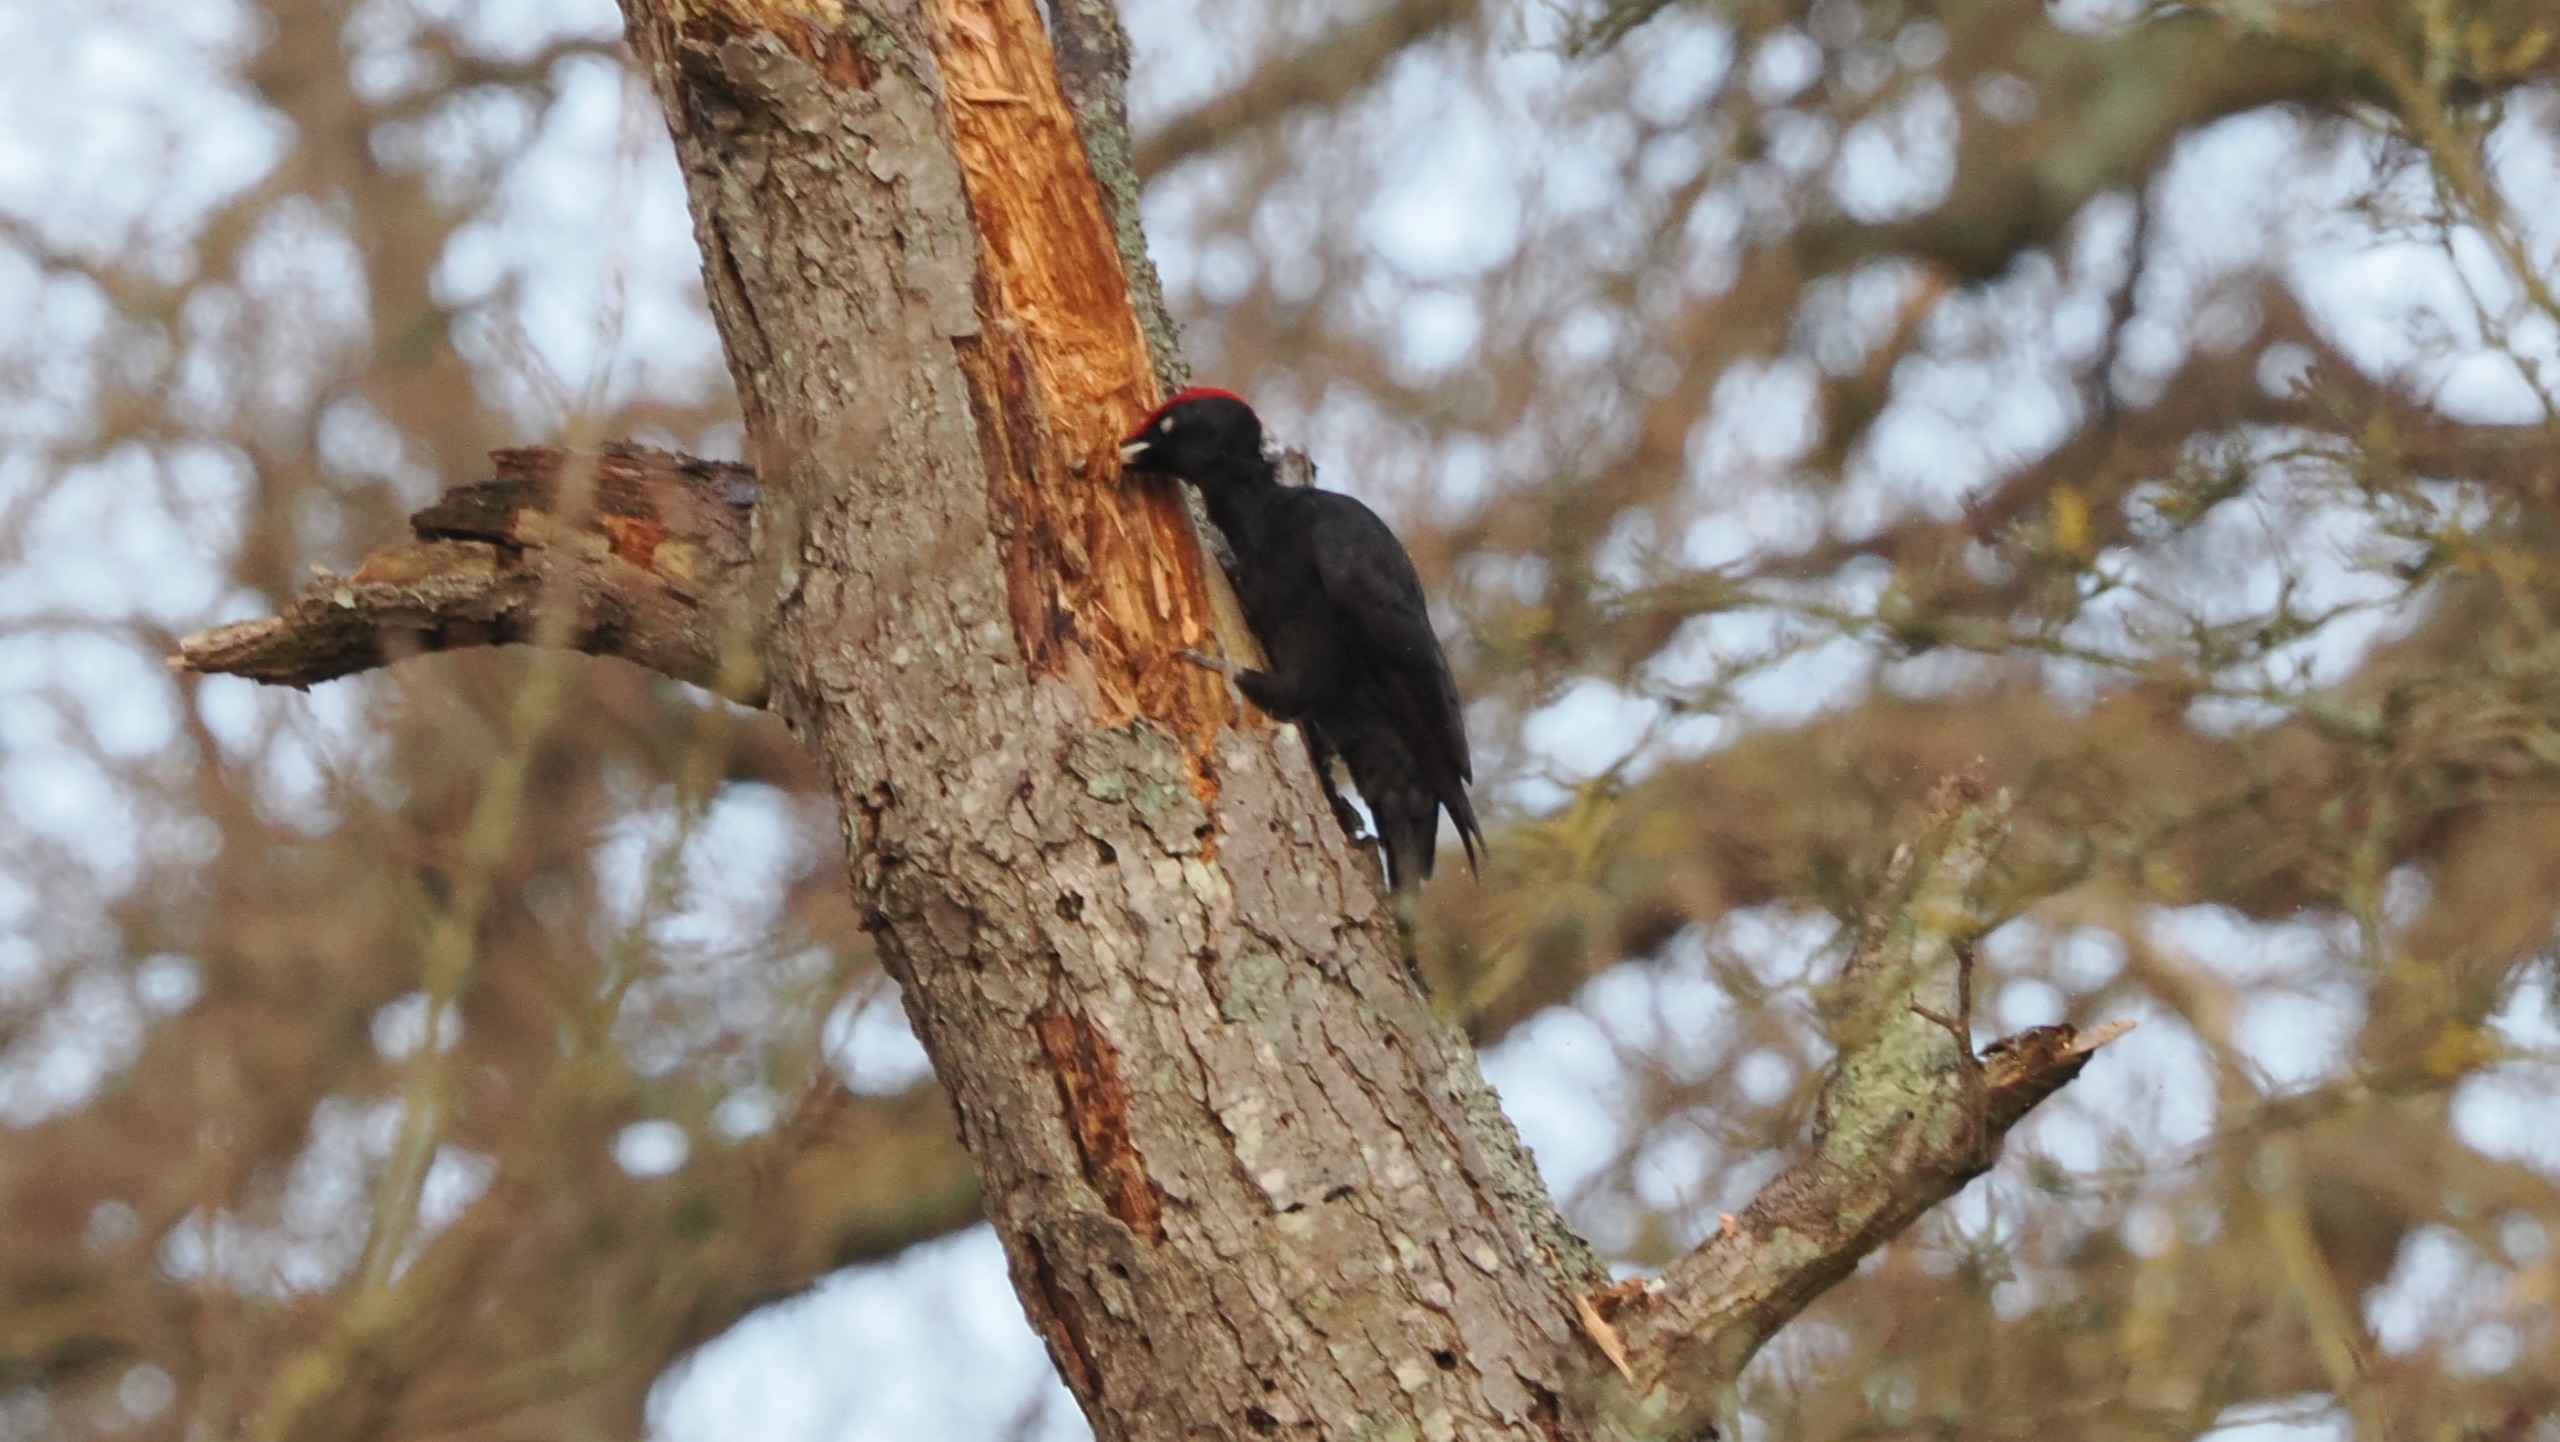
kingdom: Animalia
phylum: Chordata
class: Aves
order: Piciformes
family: Picidae
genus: Dryocopus
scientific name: Dryocopus martius
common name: Sortspætte
